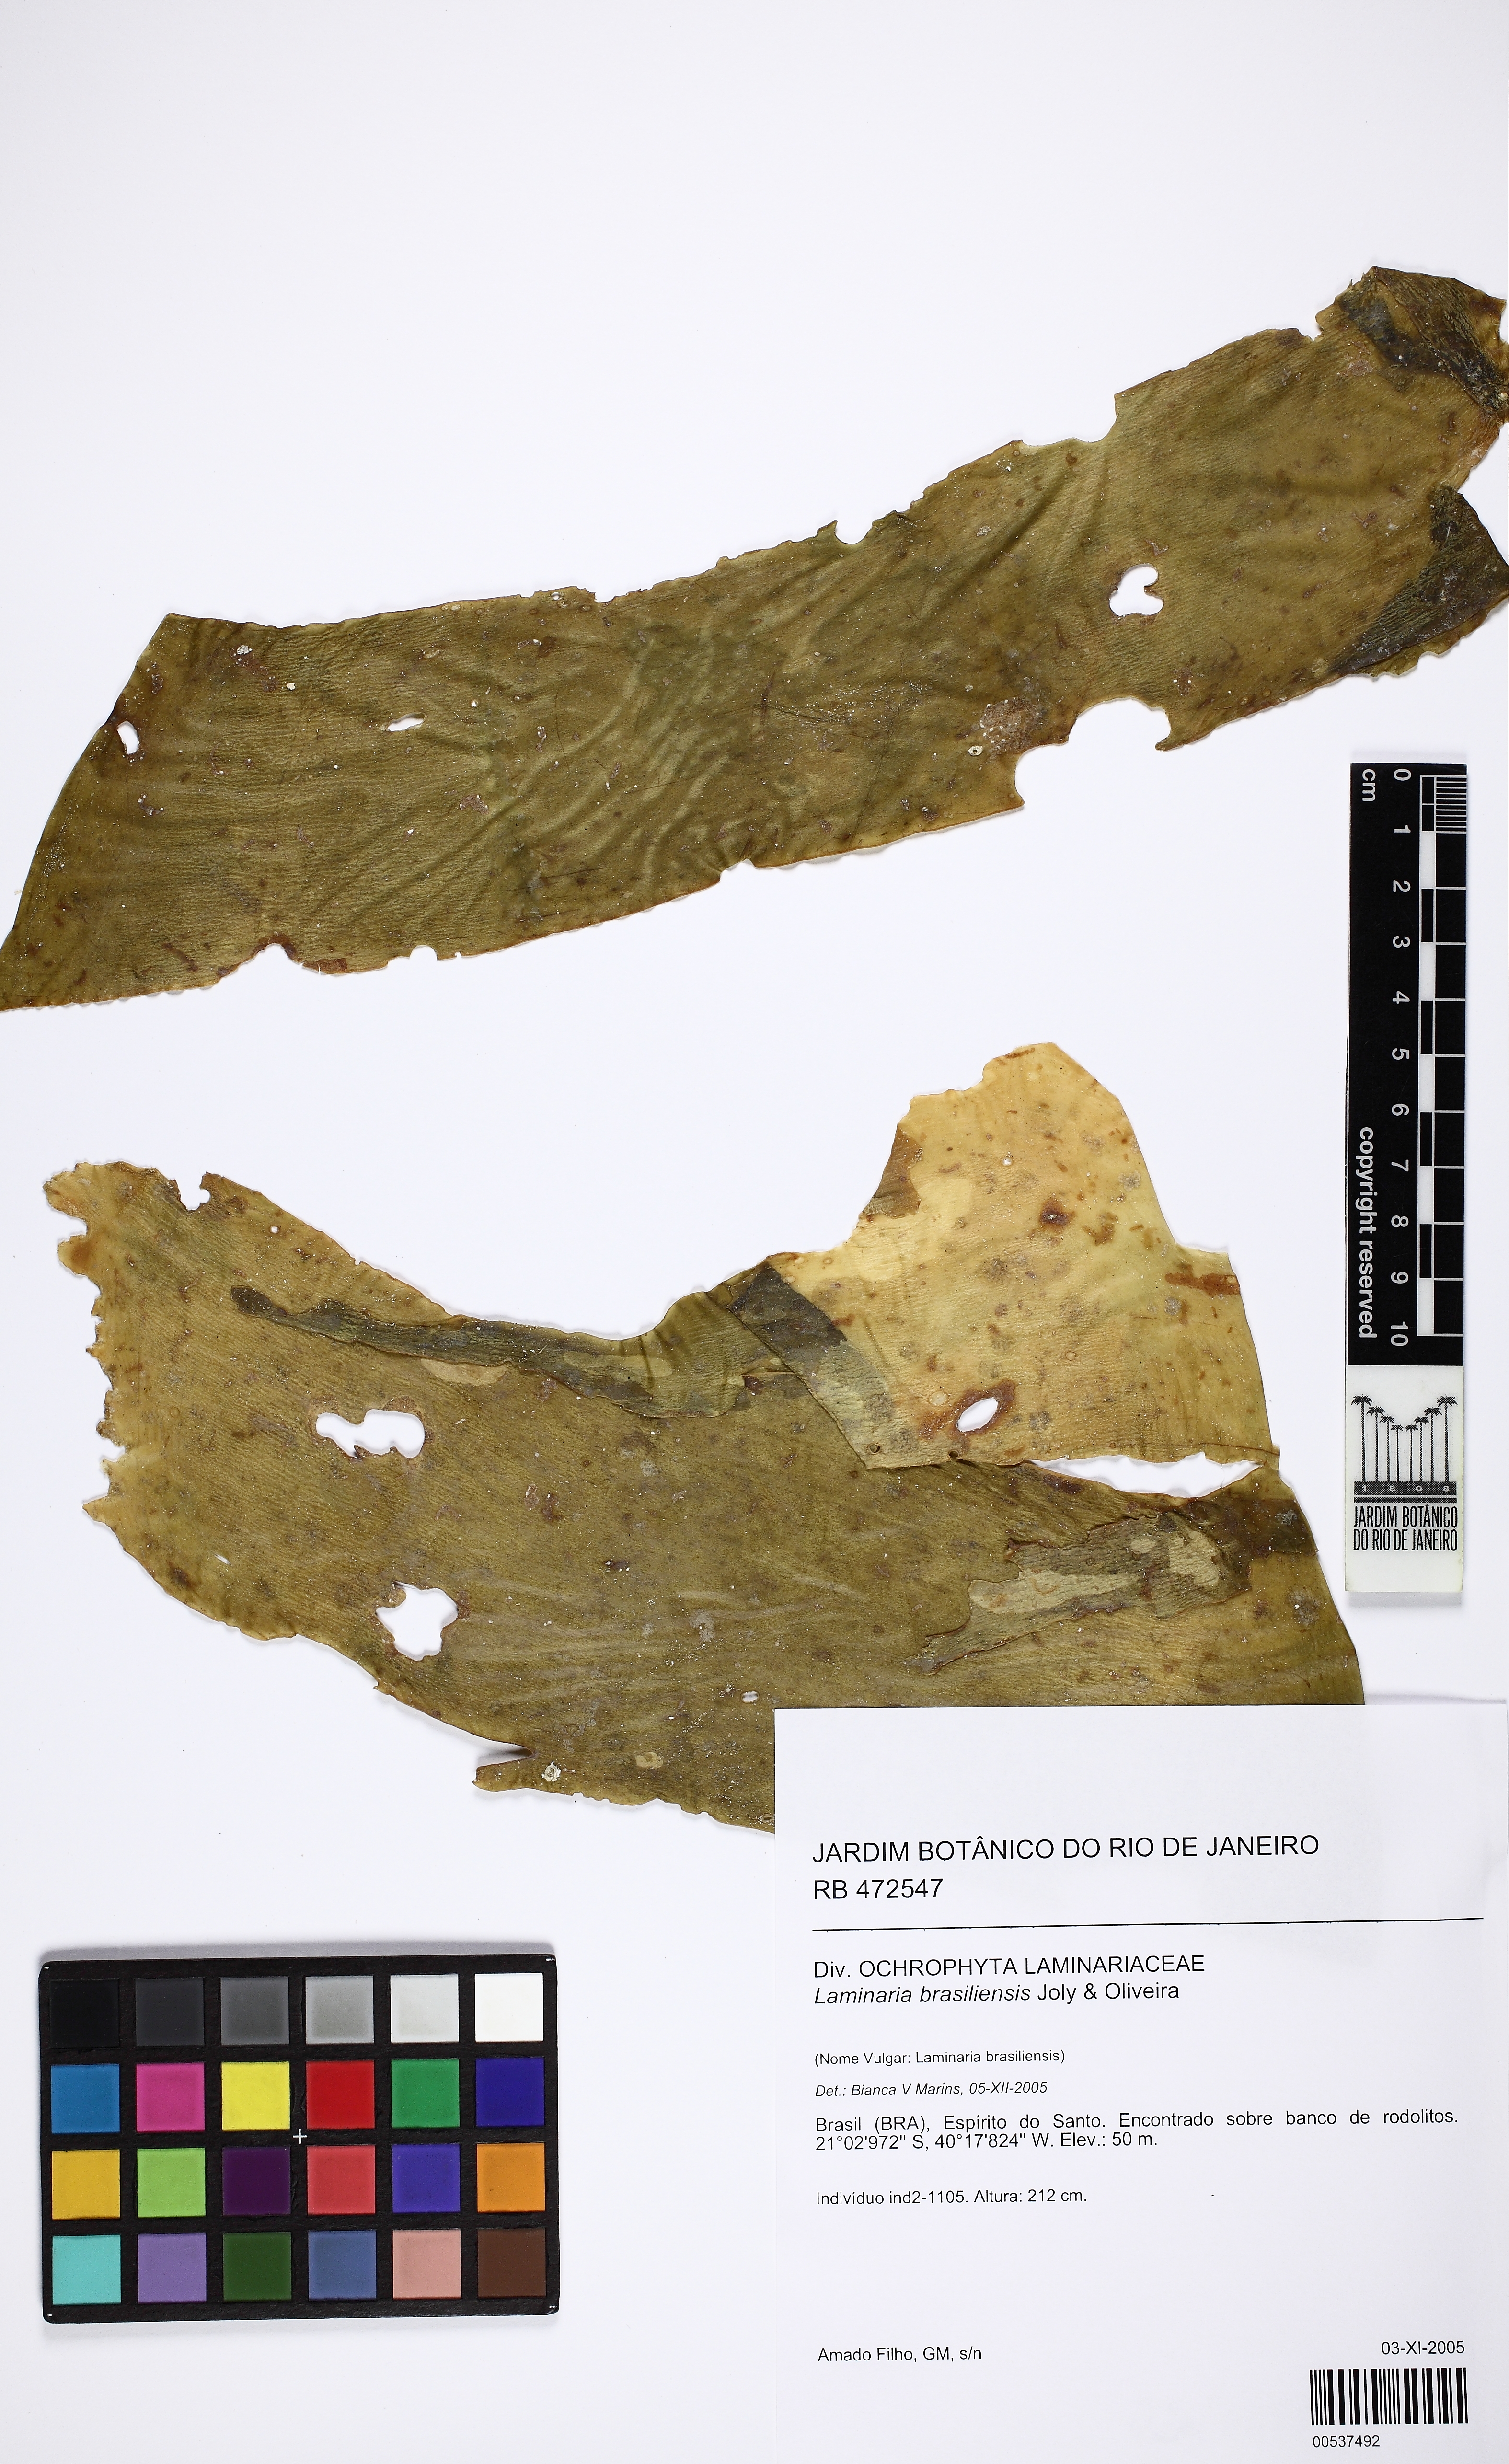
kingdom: Chromista
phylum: Ochrophyta
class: Phaeophyceae
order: Laminariales
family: Laminariaceae
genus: Laminaria
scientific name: Laminaria abyssalis
